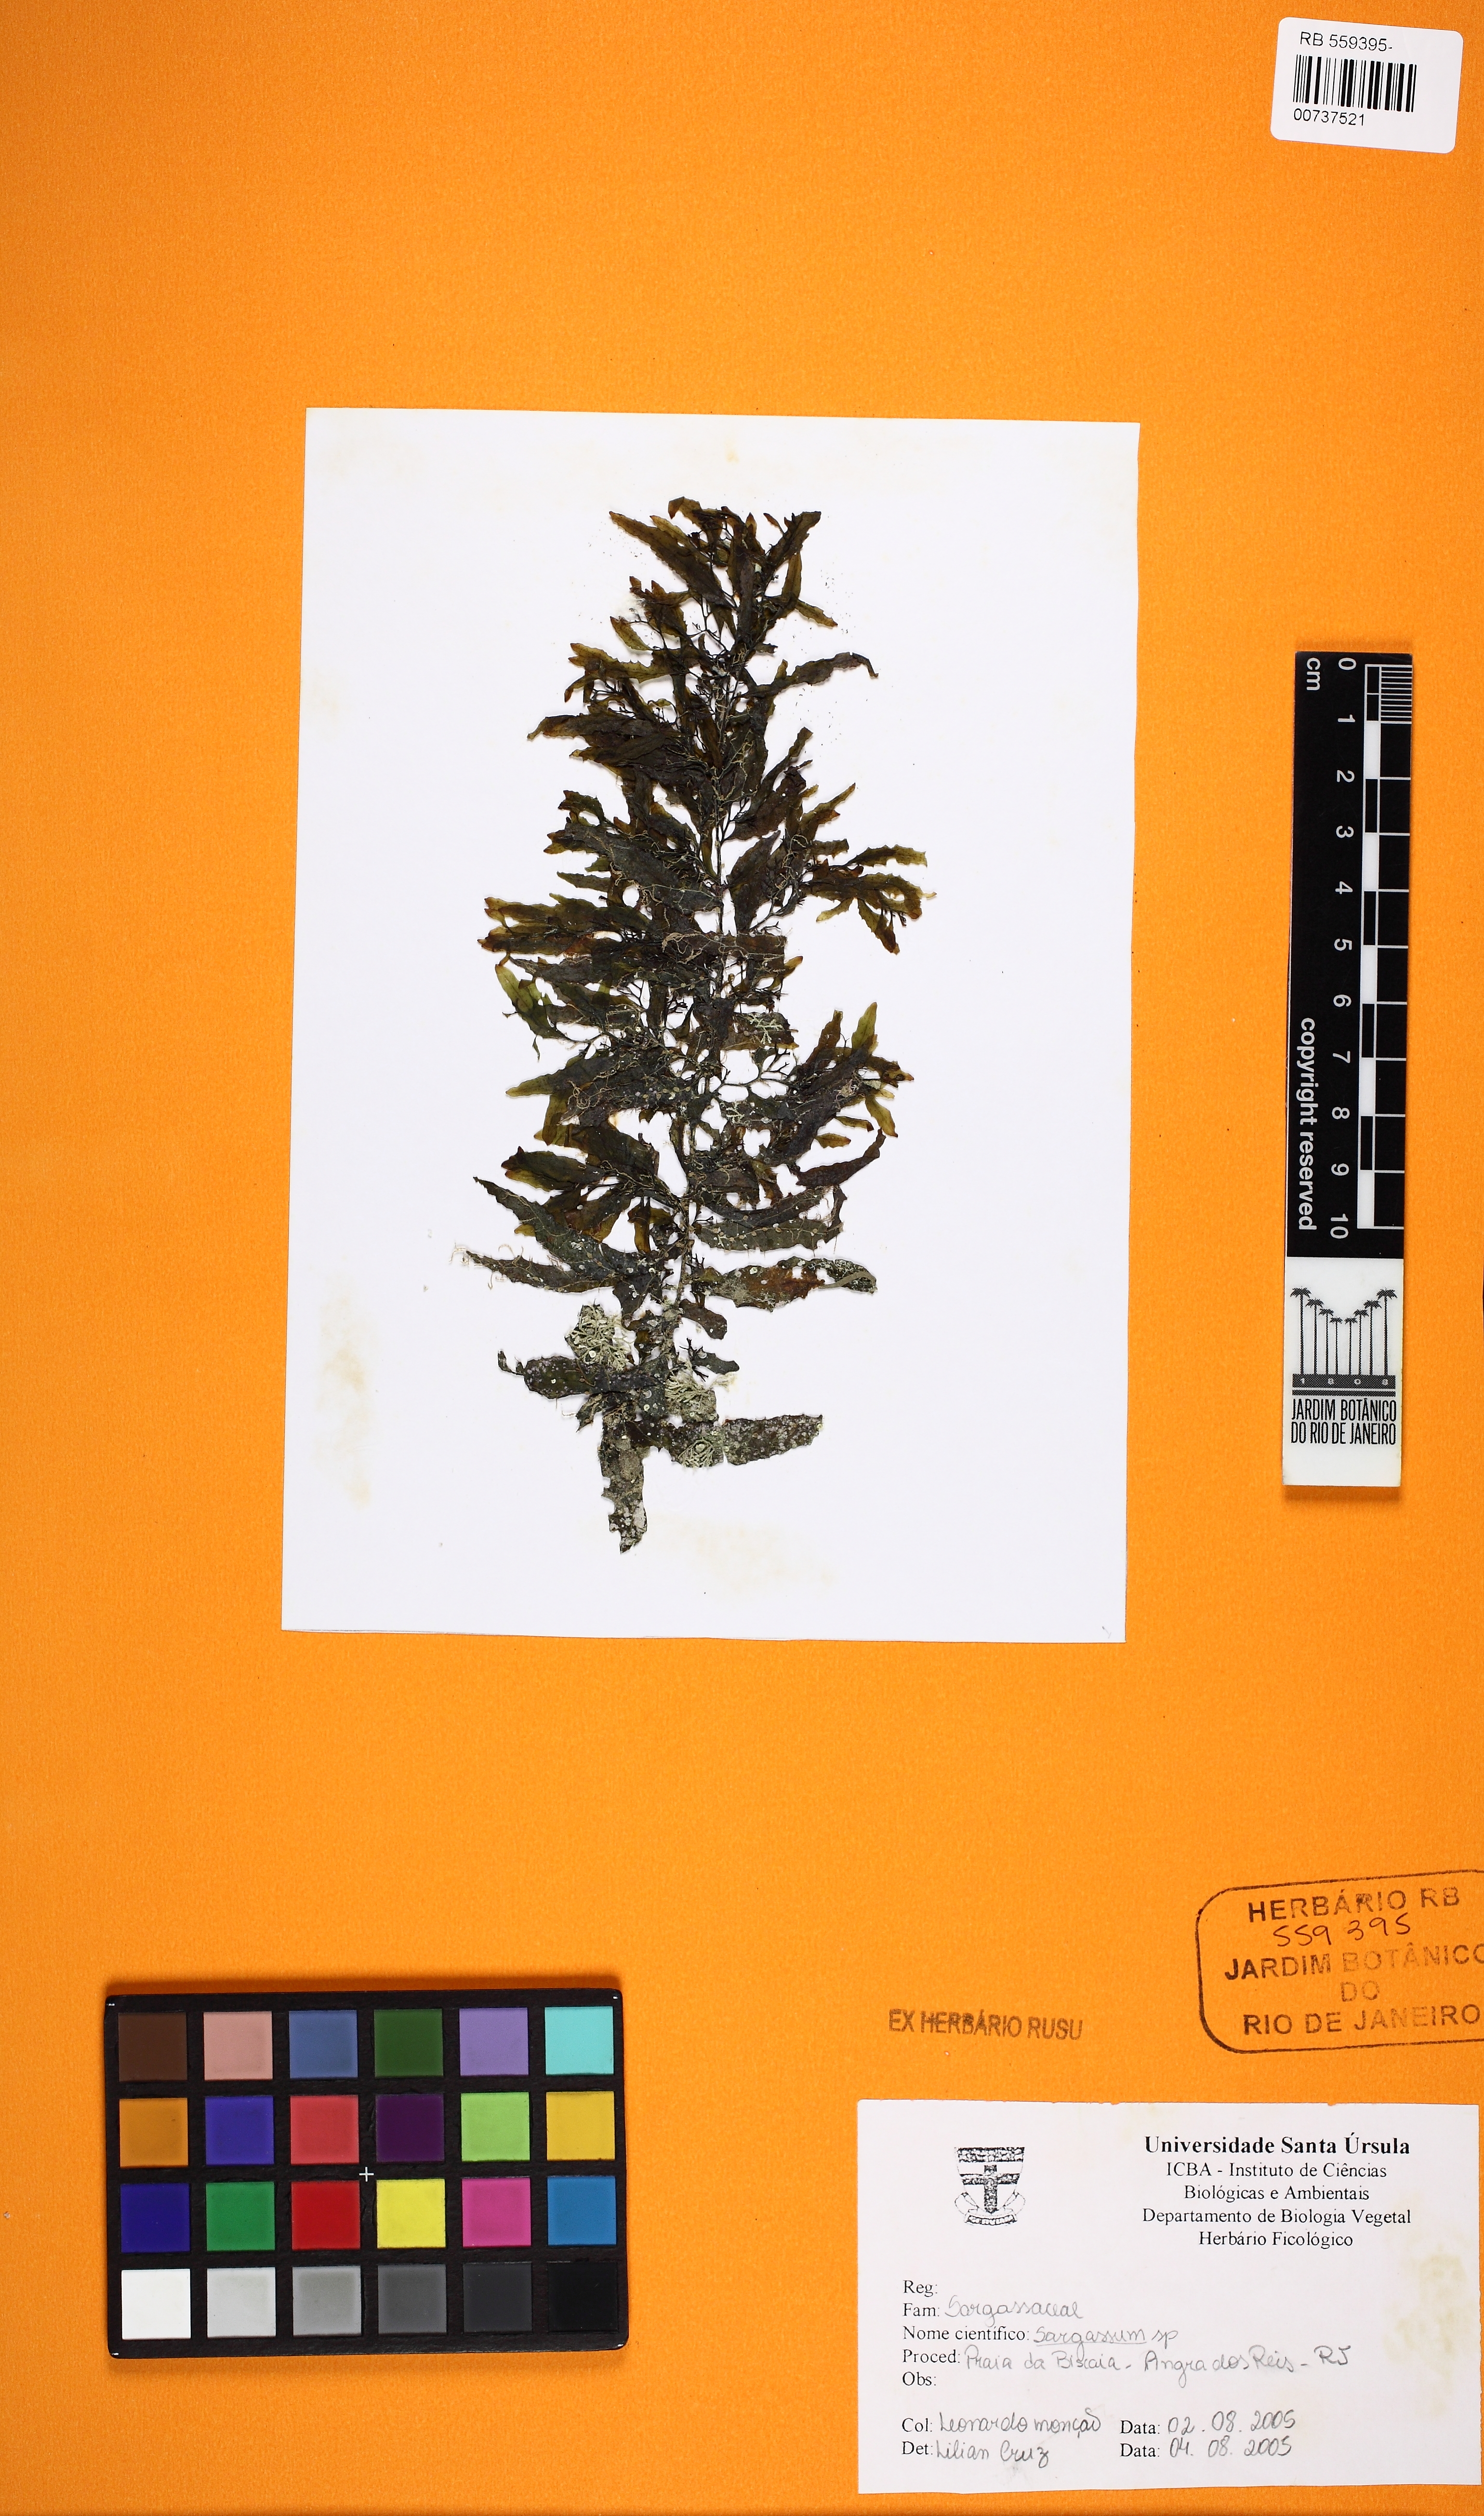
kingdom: Chromista
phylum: Ochrophyta
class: Phaeophyceae
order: Fucales
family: Sargassaceae
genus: Sargassum
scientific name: Sargassum
